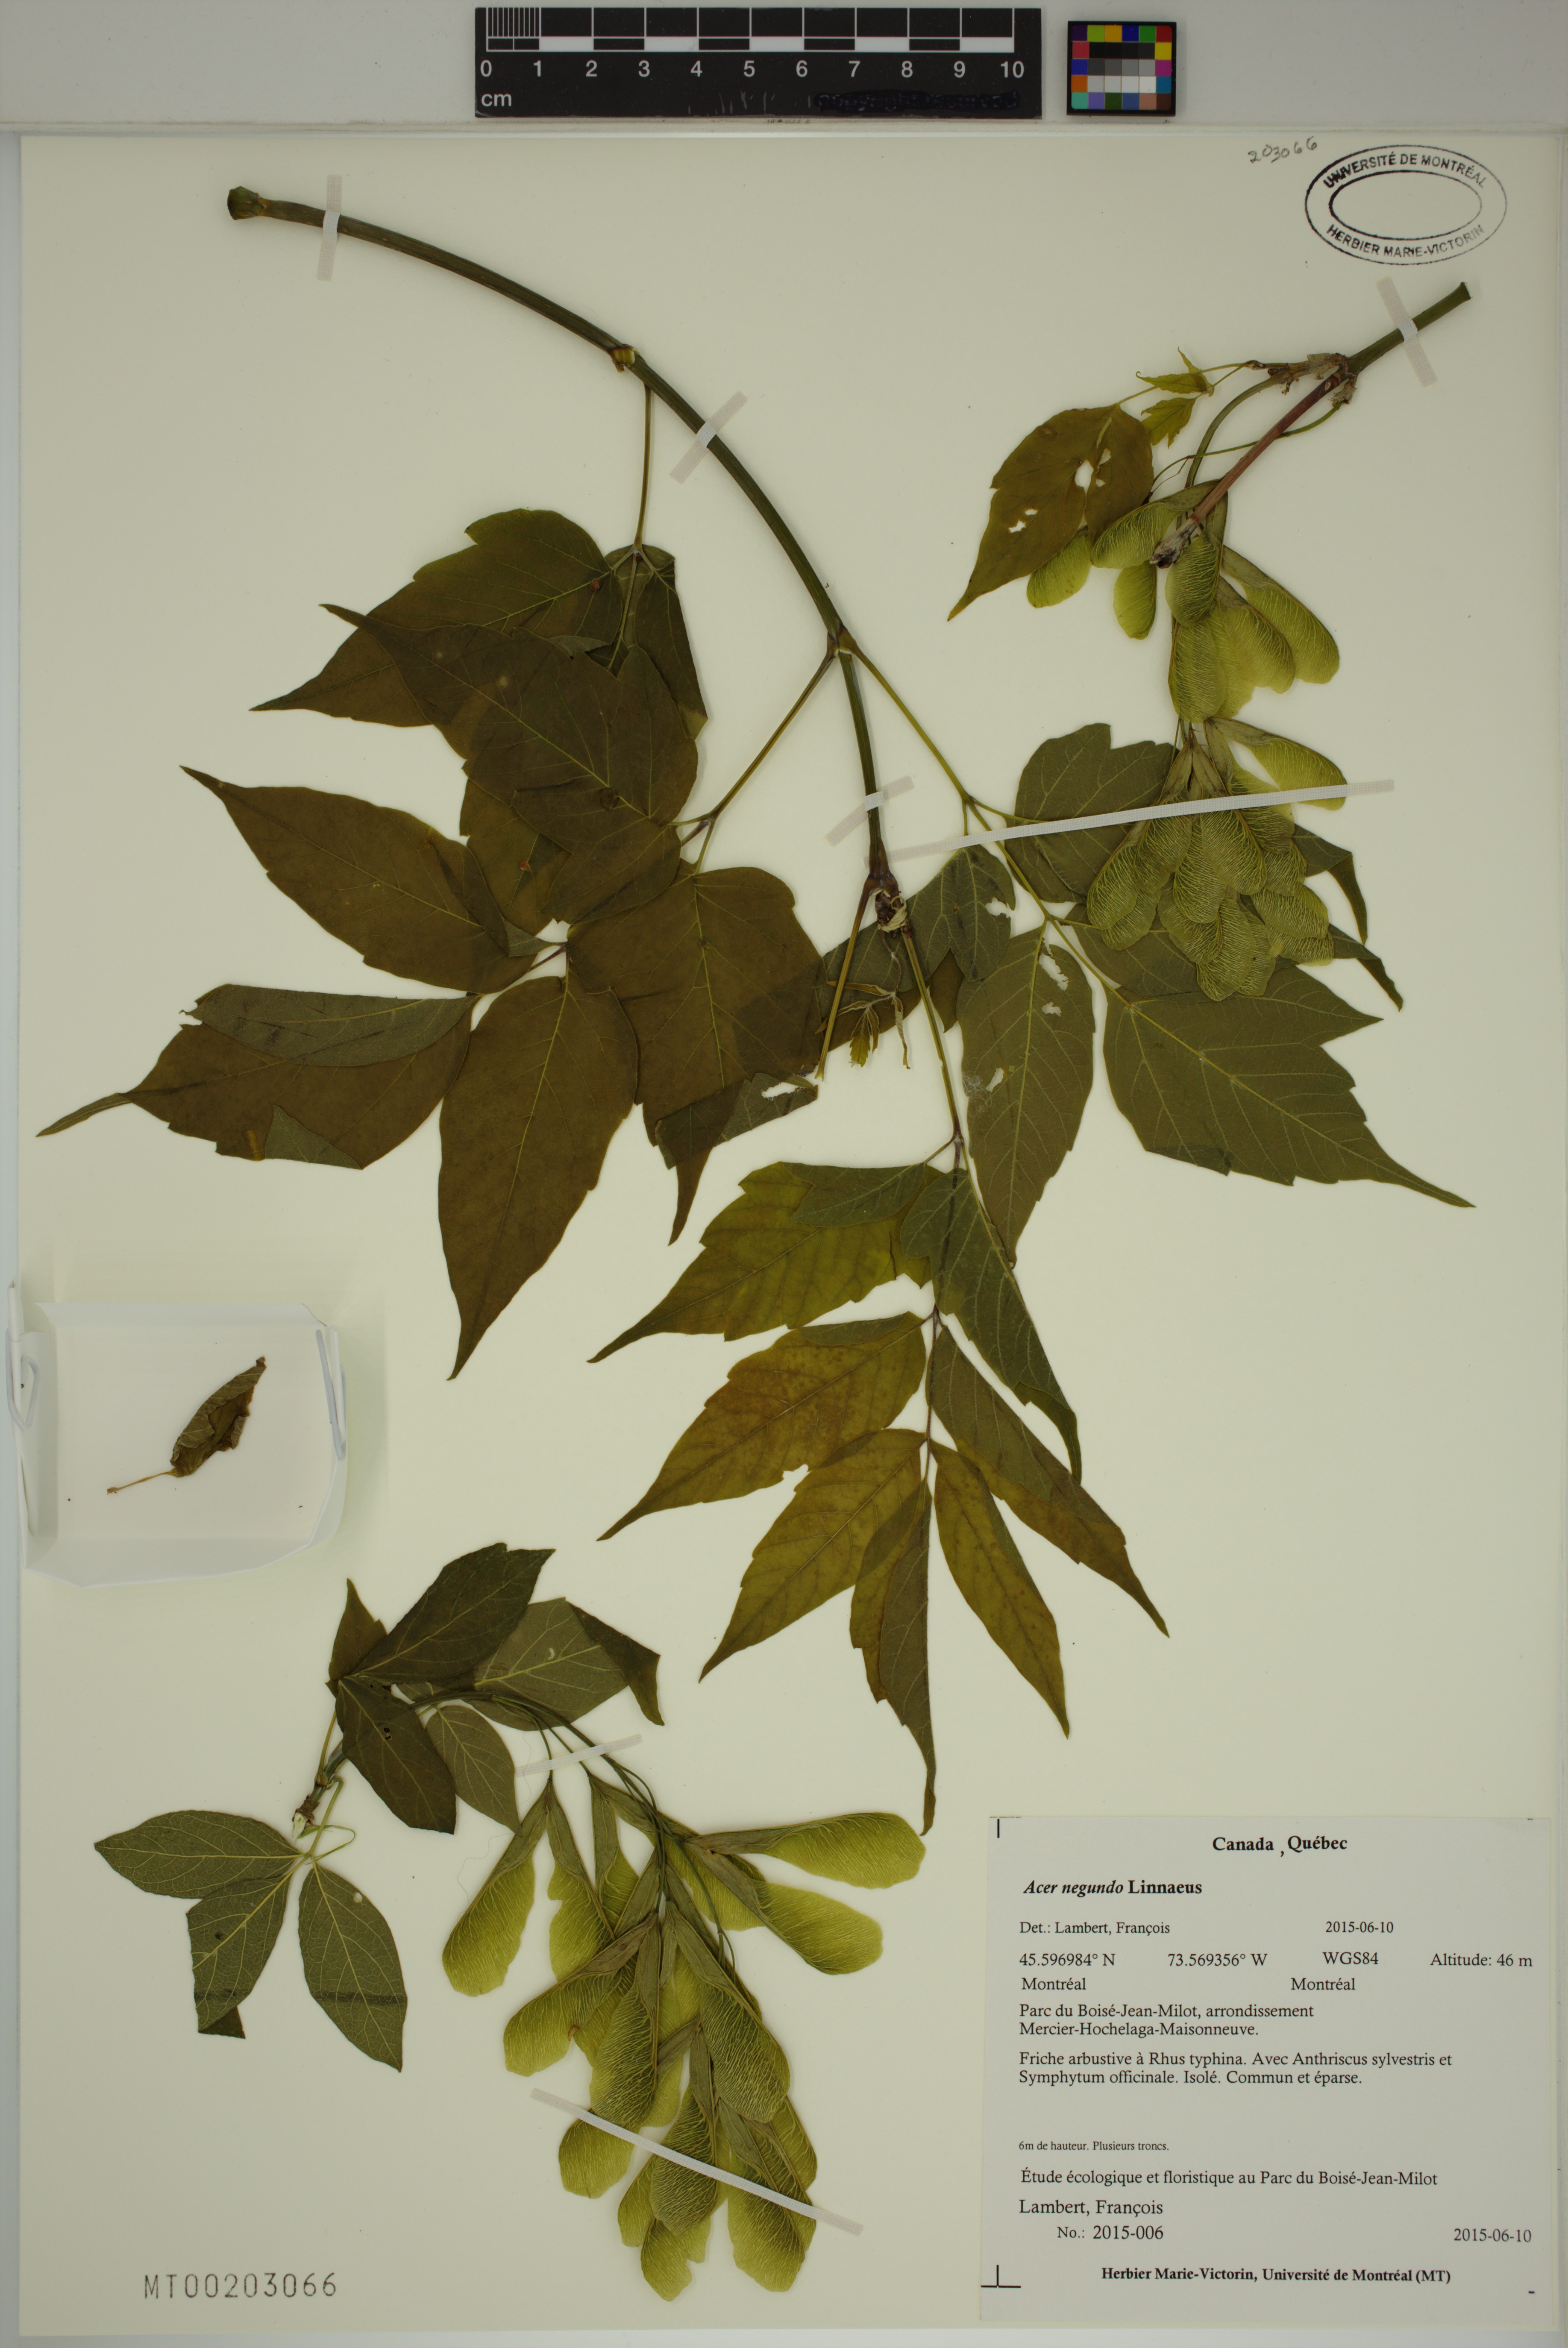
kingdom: Plantae
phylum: Tracheophyta
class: Magnoliopsida
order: Sapindales
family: Sapindaceae
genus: Acer
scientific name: Acer negundo
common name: Ashleaf maple
